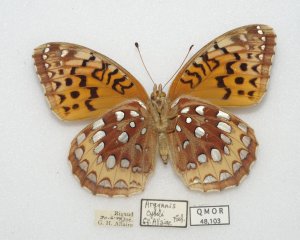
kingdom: Animalia
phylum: Arthropoda
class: Insecta
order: Lepidoptera
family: Nymphalidae
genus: Speyeria
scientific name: Speyeria cybele
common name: Great Spangled Fritillary
